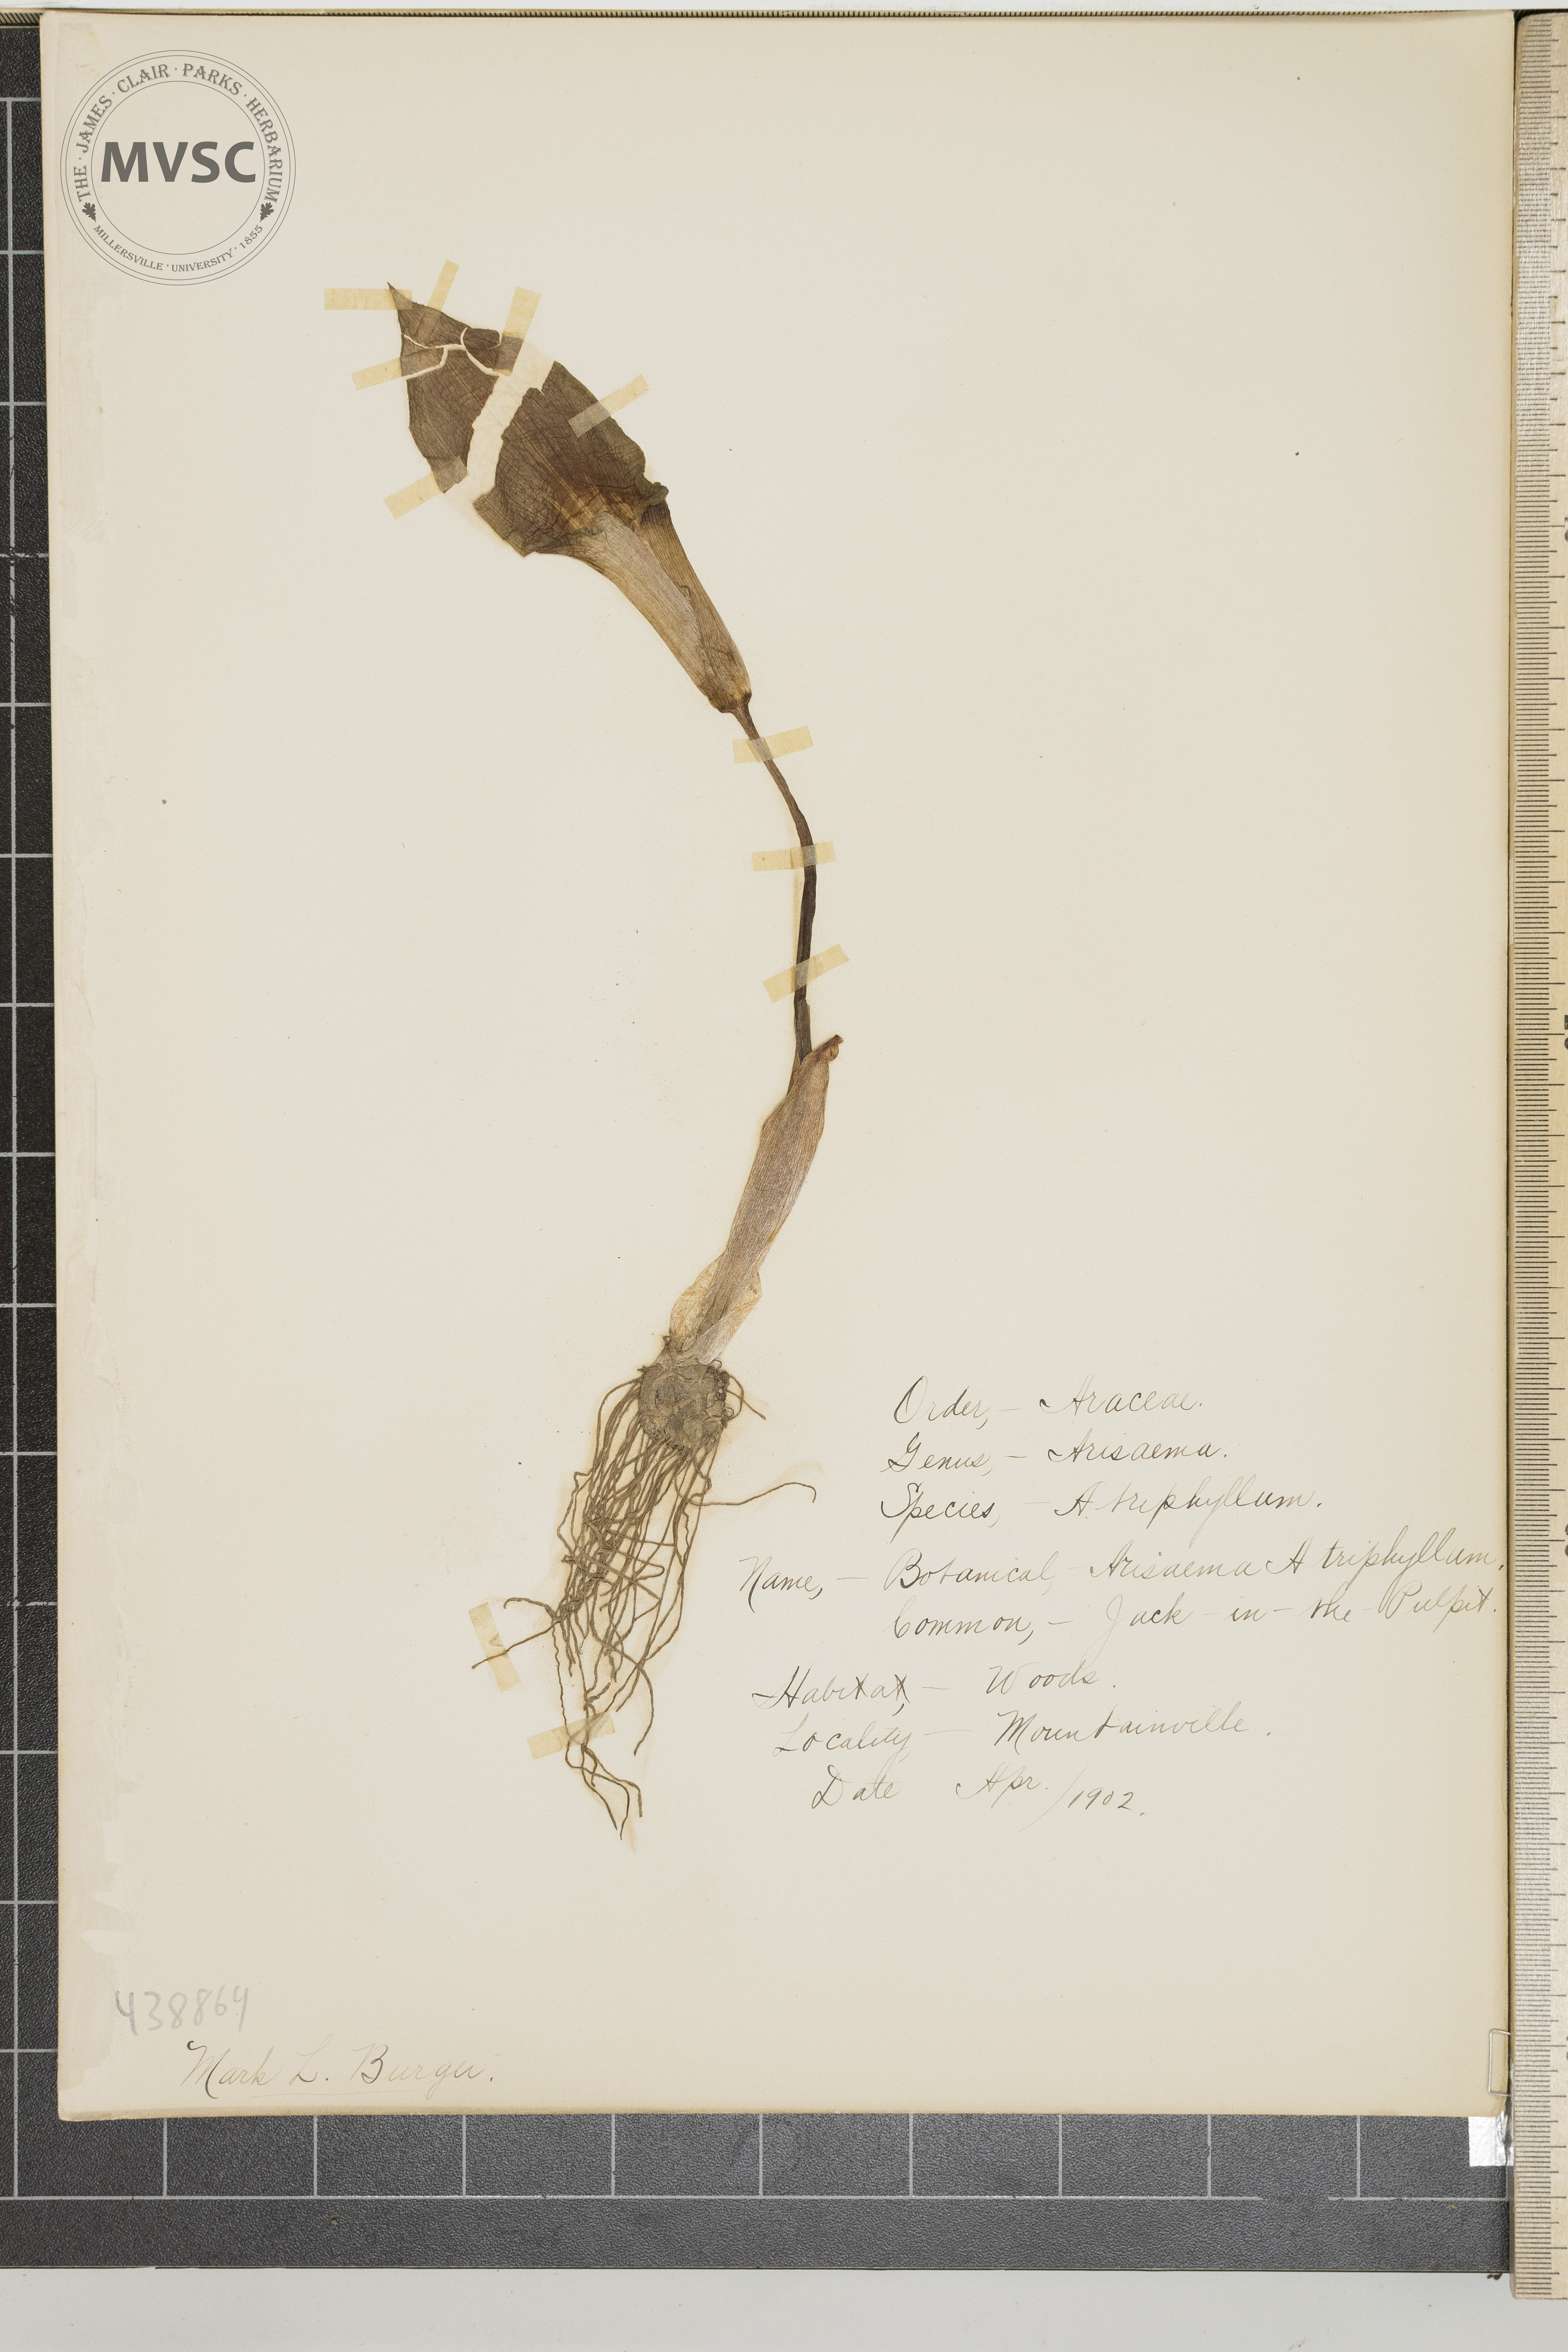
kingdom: Plantae
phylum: Tracheophyta
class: Liliopsida
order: Alismatales
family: Araceae
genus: Arisaema
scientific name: Arisaema triphyllum
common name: Jack in the Pulpit
